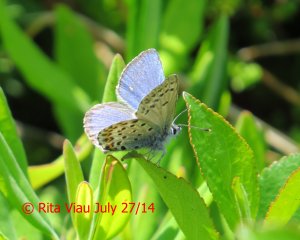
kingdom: Animalia
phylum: Arthropoda
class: Insecta
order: Lepidoptera
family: Lycaenidae
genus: Lycaeides
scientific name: Lycaeides idas
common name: Northern Blue
